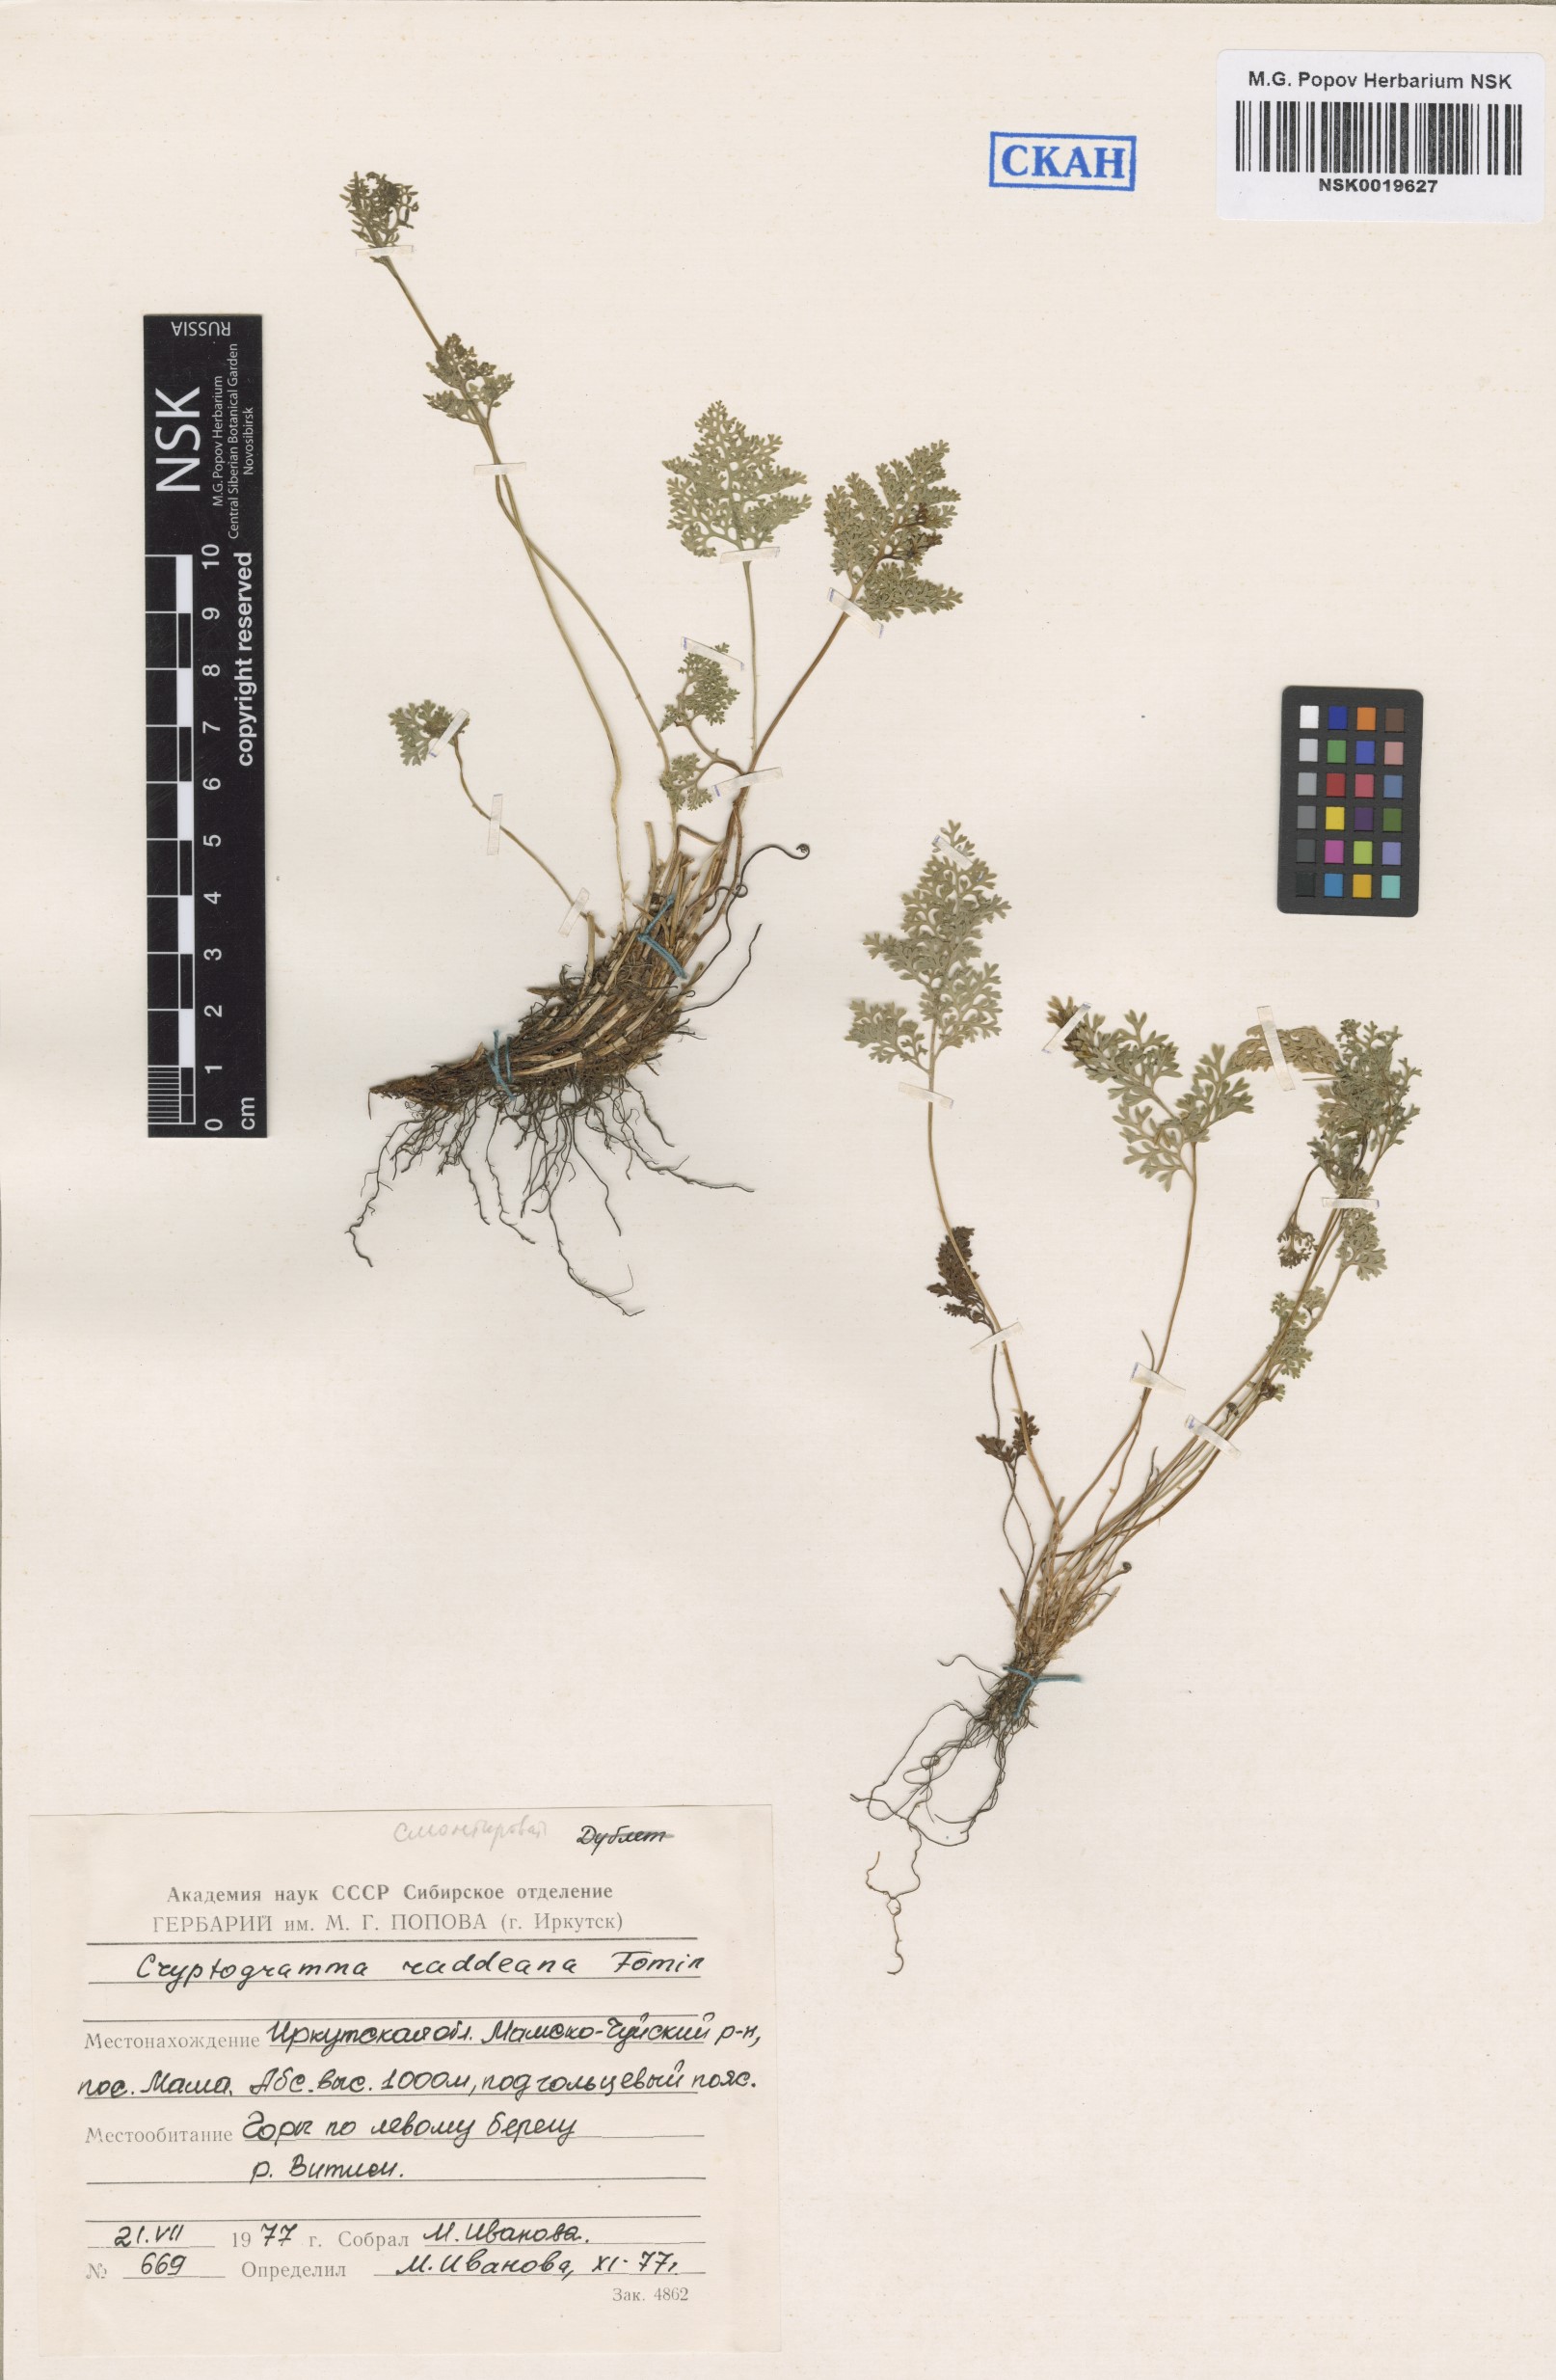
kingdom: Plantae
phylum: Tracheophyta
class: Polypodiopsida
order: Polypodiales
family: Pteridaceae
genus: Cryptogramma
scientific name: Cryptogramma brunoniana
